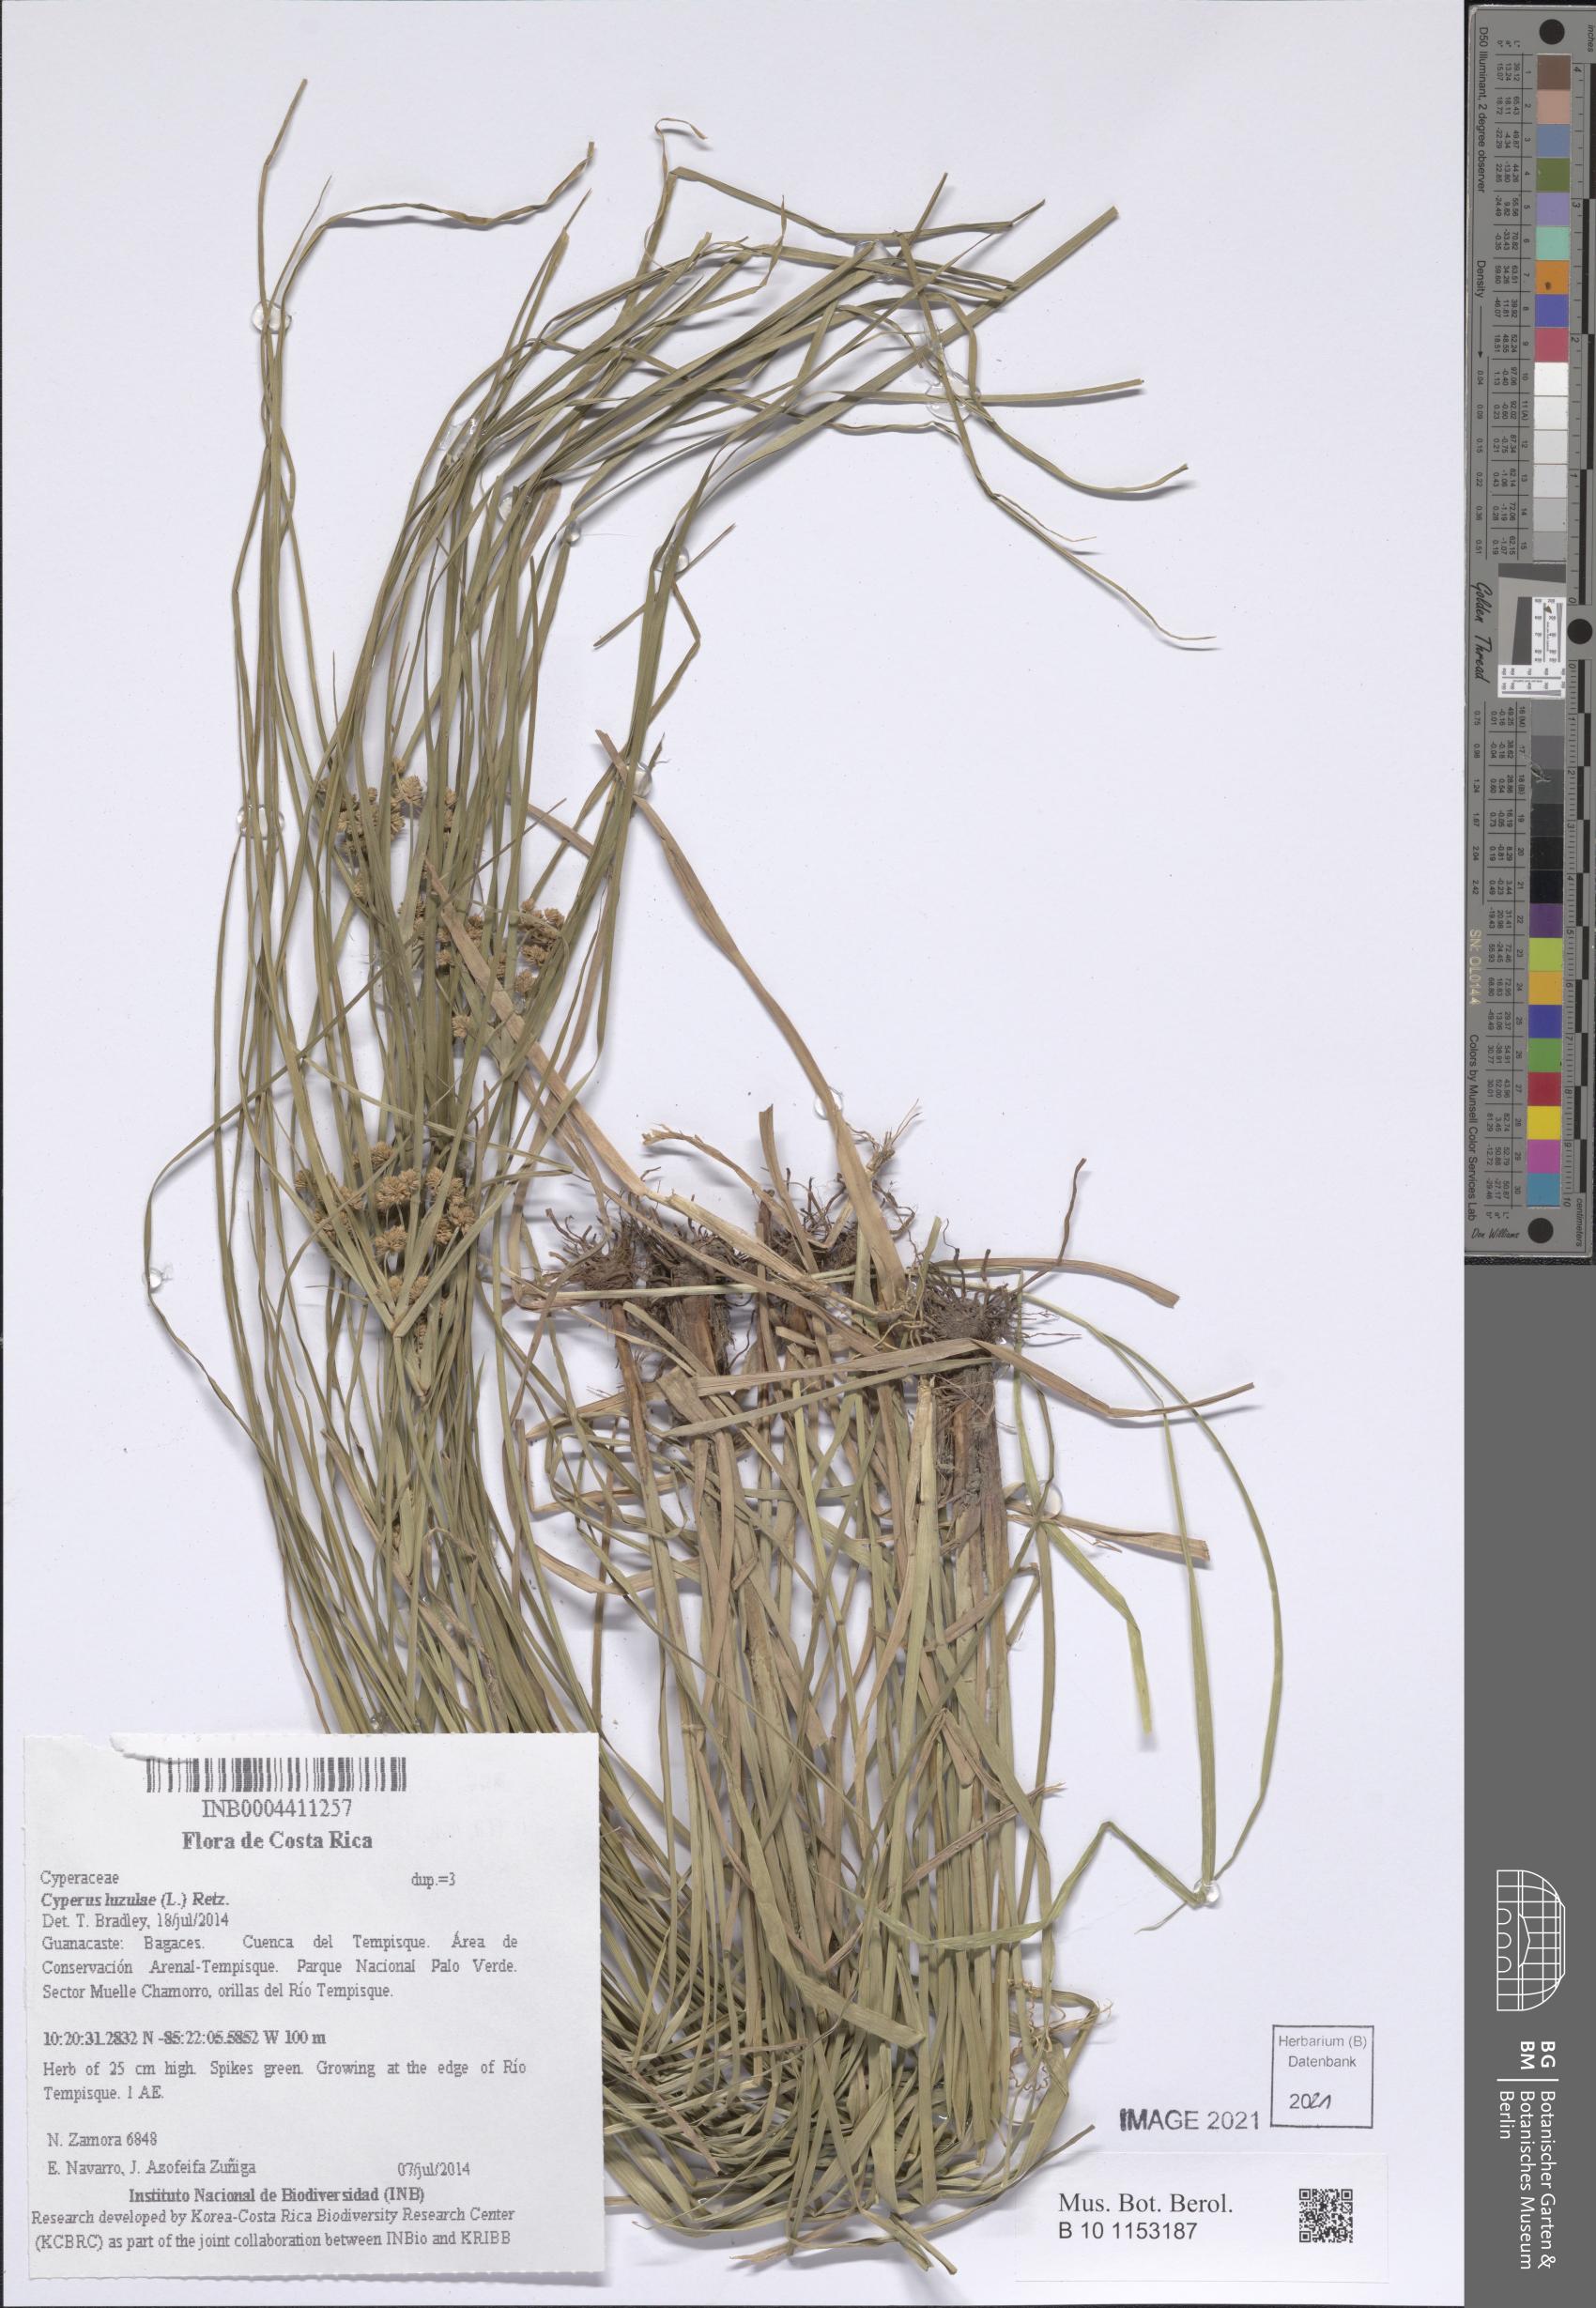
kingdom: Plantae
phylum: Tracheophyta
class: Liliopsida
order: Poales
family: Cyperaceae
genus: Cyperus
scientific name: Cyperus luzulae
